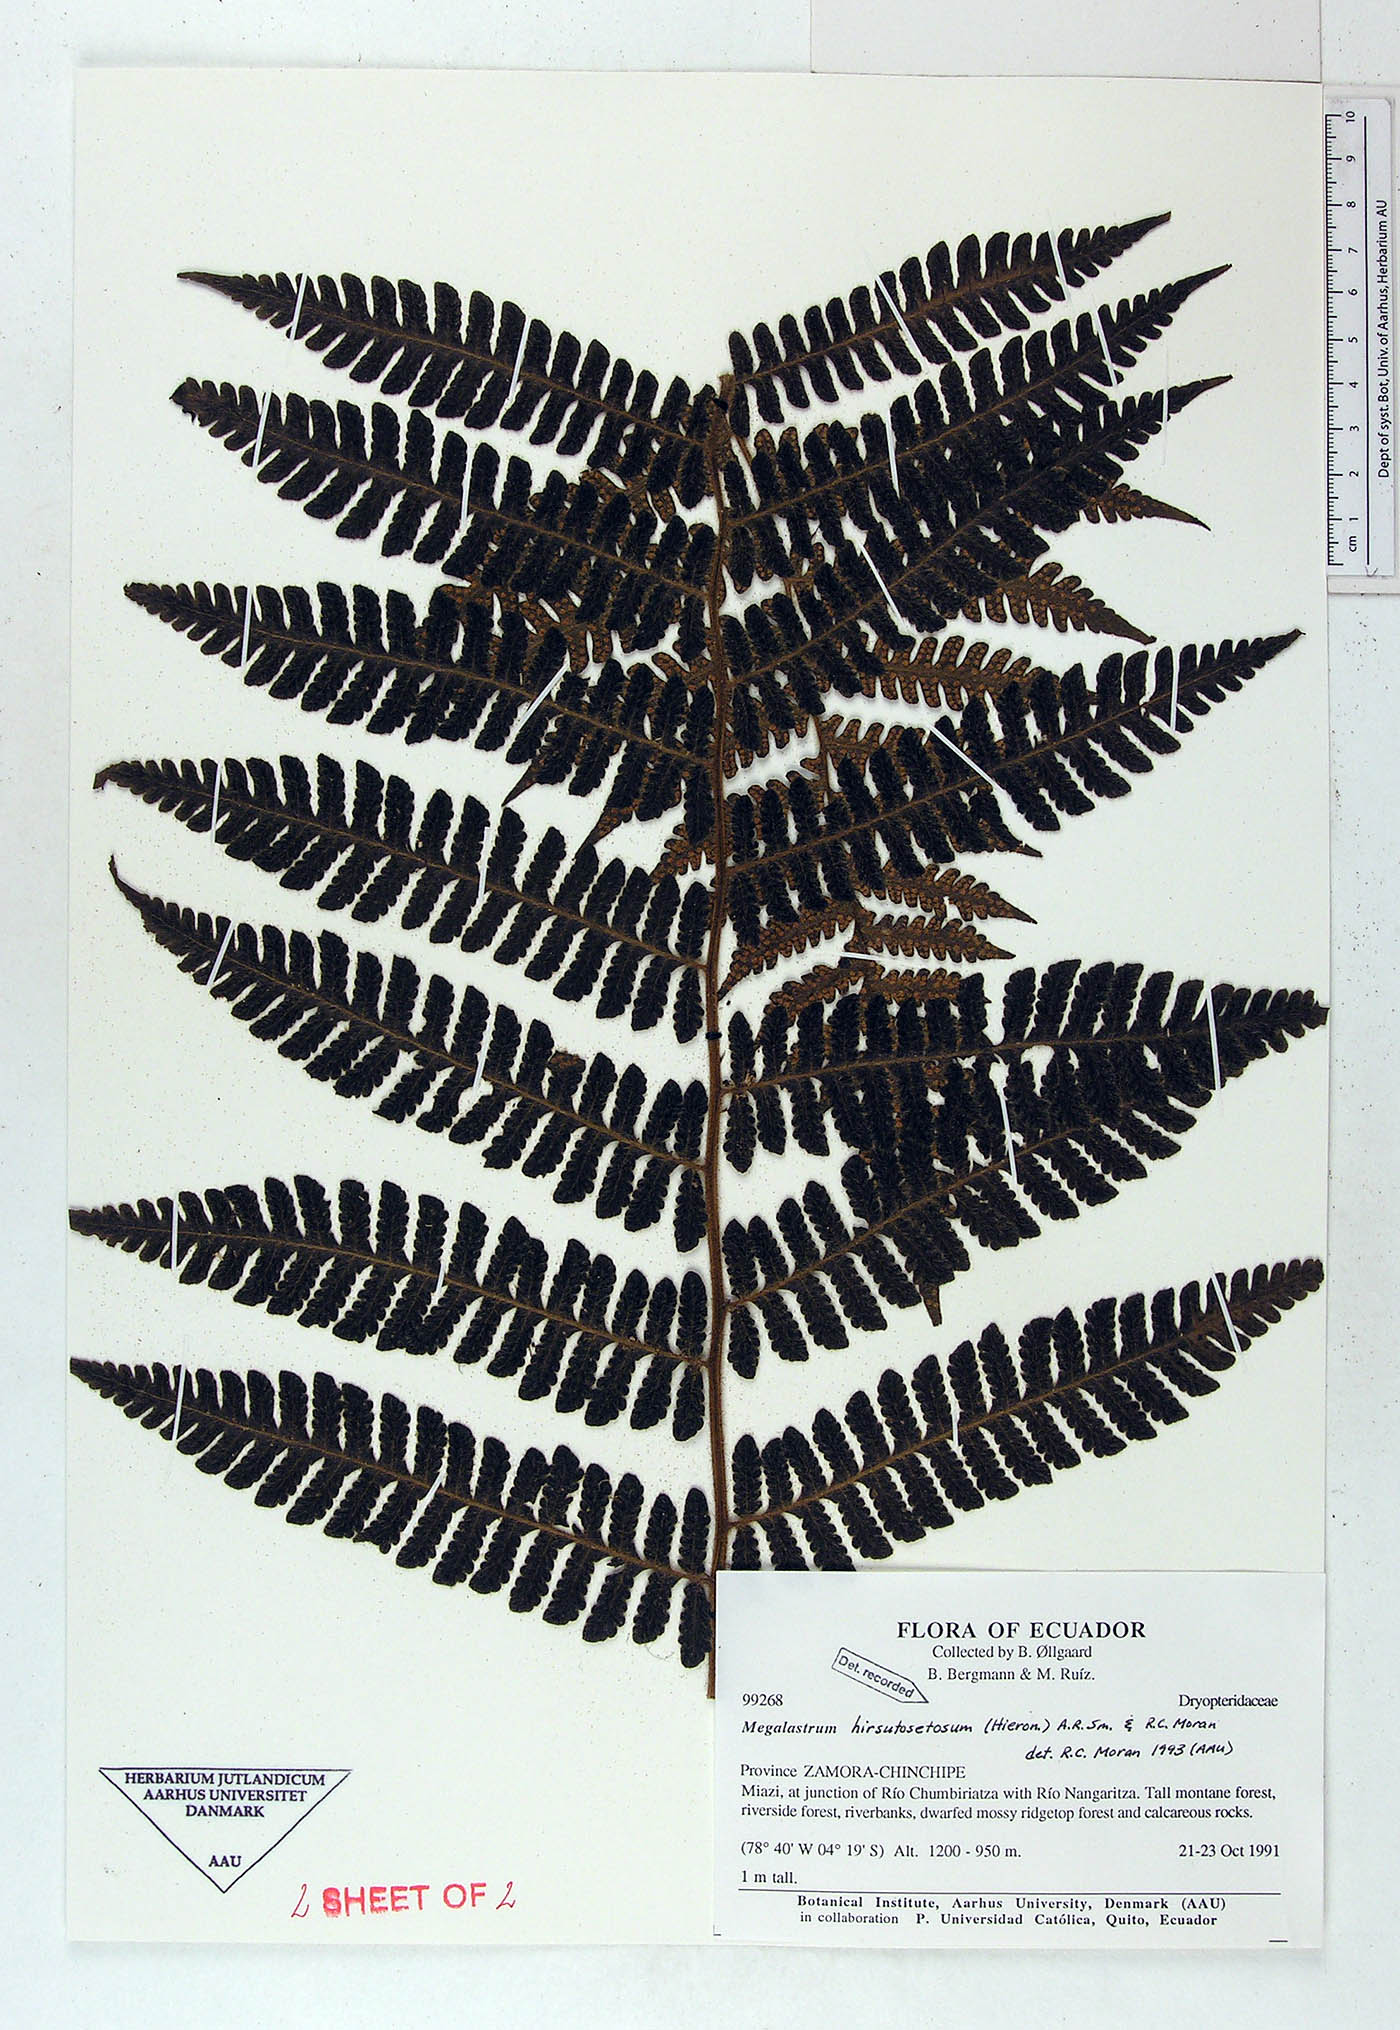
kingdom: Plantae
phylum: Tracheophyta
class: Polypodiopsida
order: Polypodiales
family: Dryopteridaceae
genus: Megalastrum
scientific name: Megalastrum hirsutosetosum
